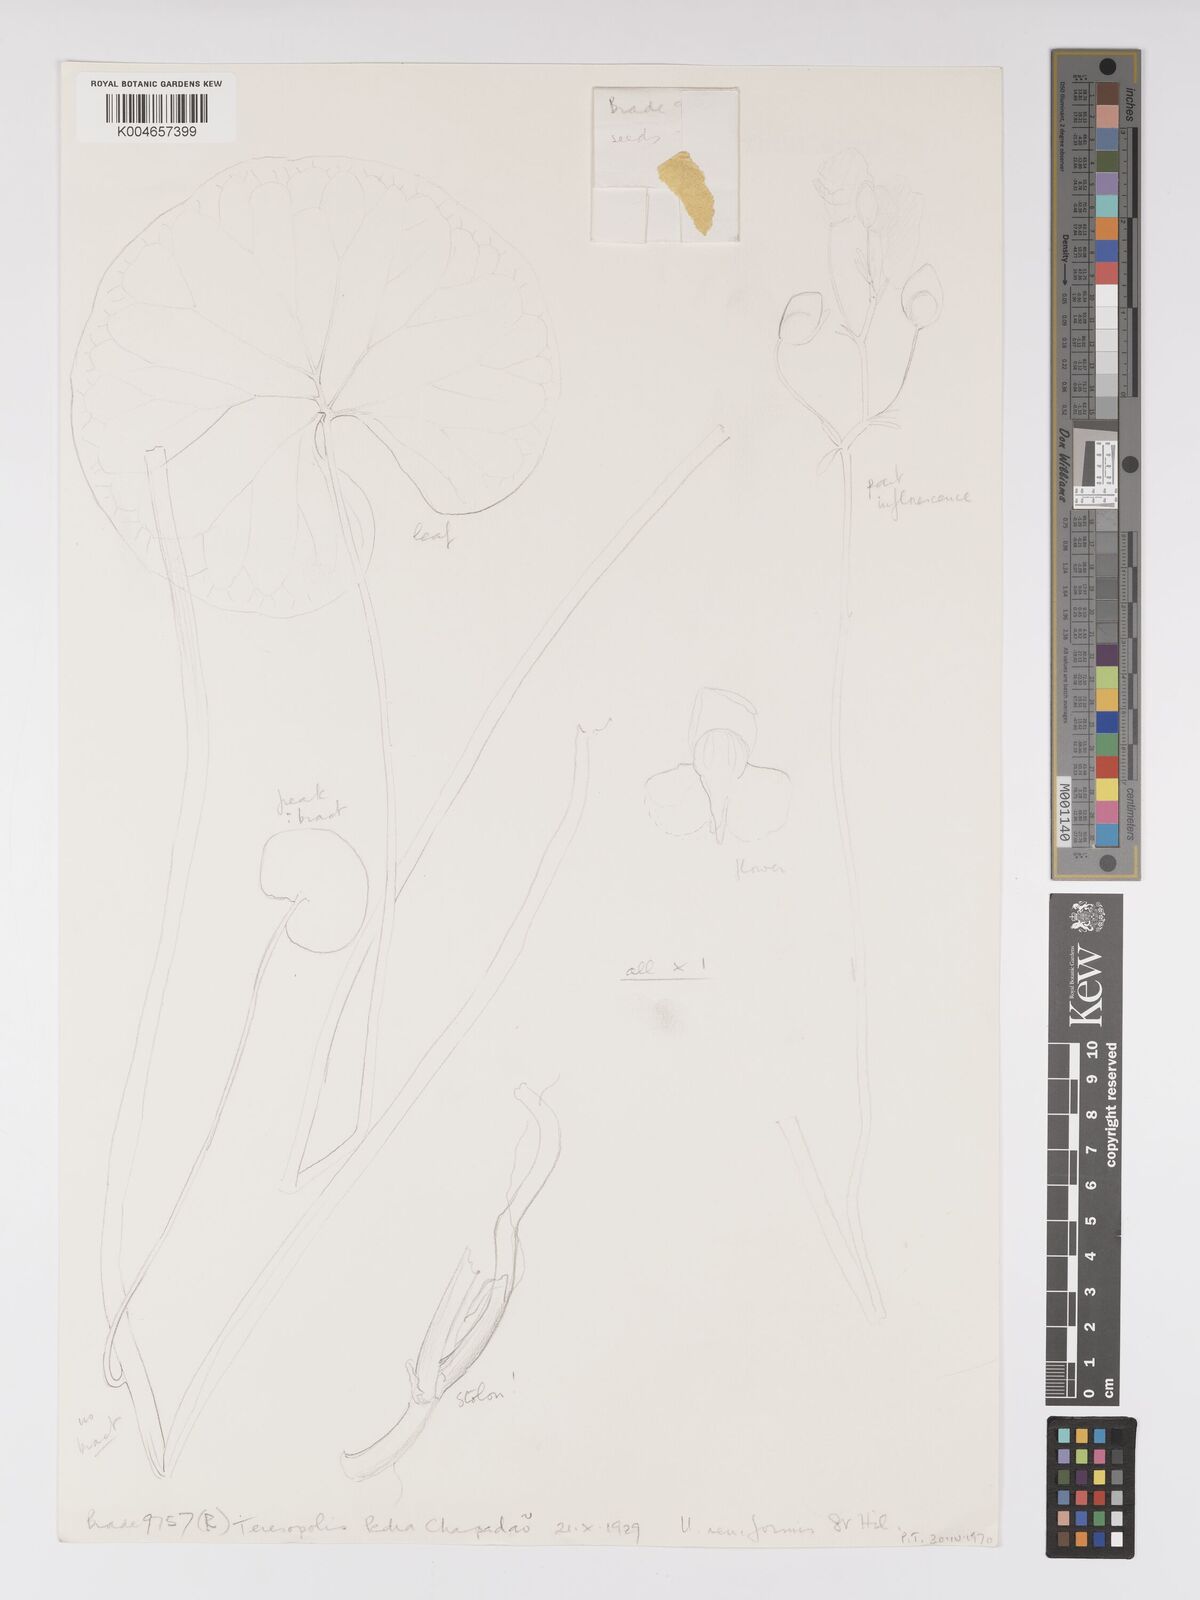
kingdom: Plantae
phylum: Tracheophyta
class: Magnoliopsida
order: Lamiales
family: Lentibulariaceae
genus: Utricularia
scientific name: Utricularia reniformis
